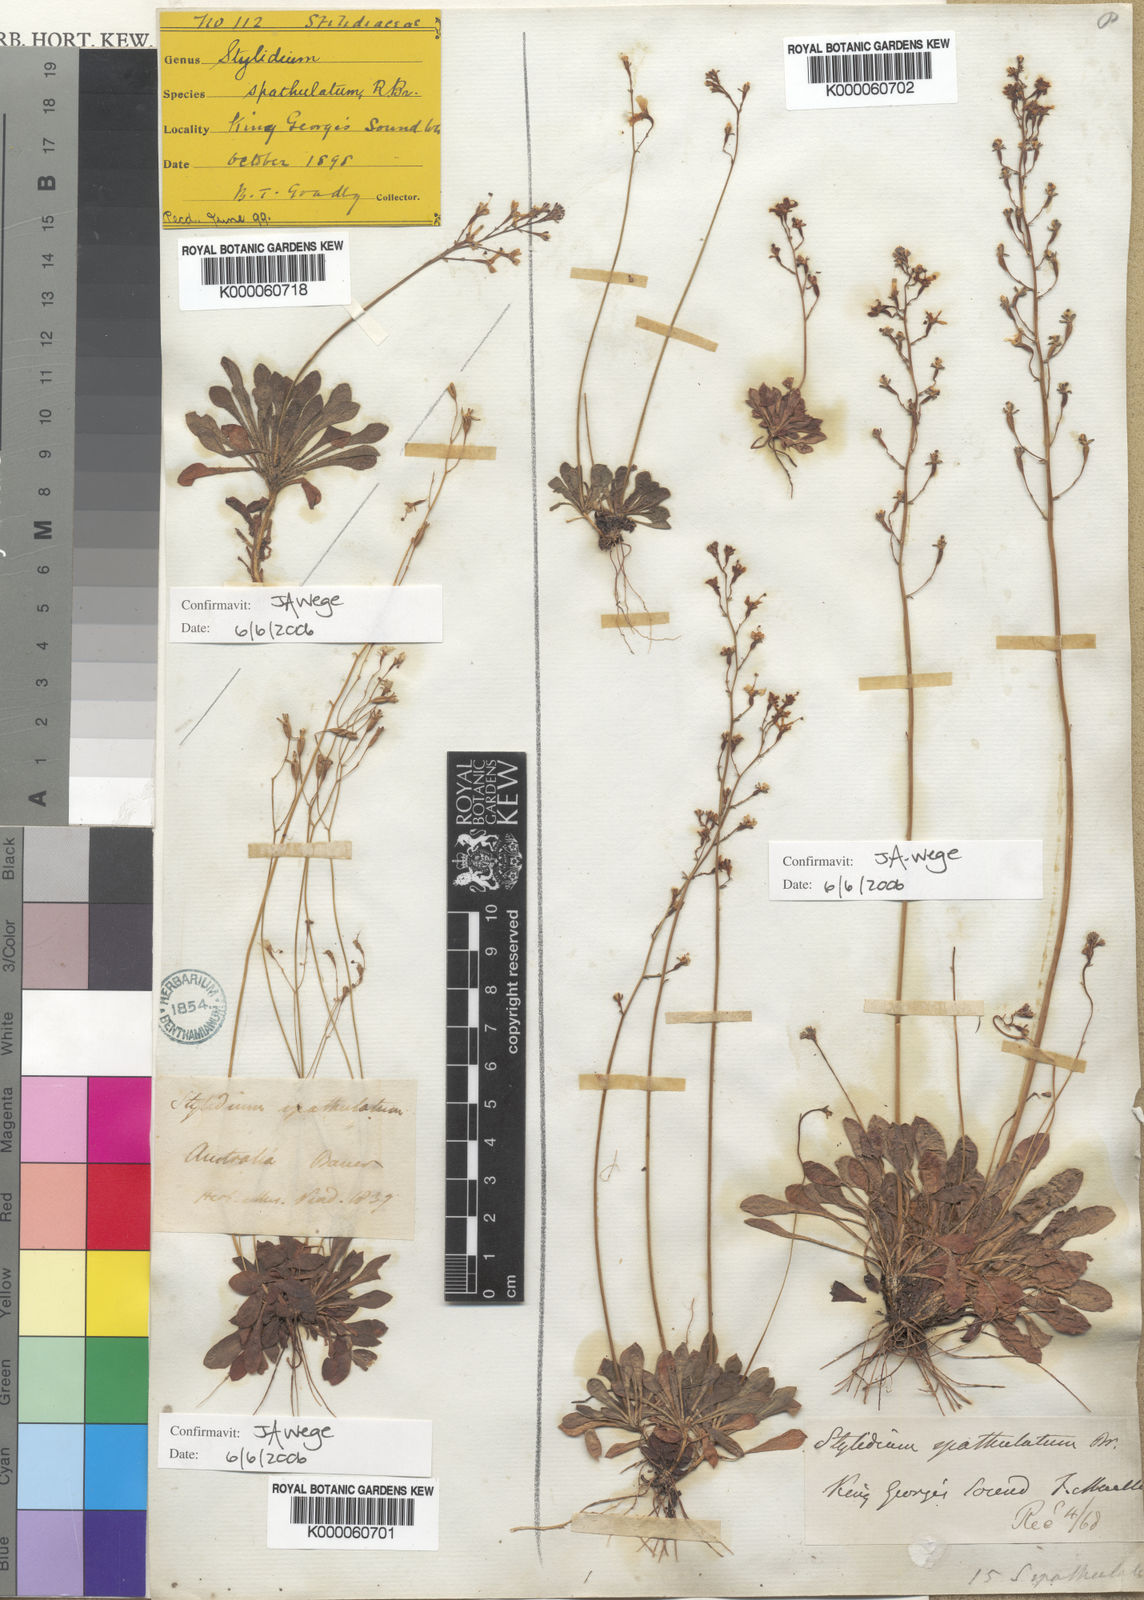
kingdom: Plantae
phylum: Tracheophyta
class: Magnoliopsida
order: Asterales
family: Stylidiaceae
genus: Stylidium
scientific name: Stylidium spathulatum
